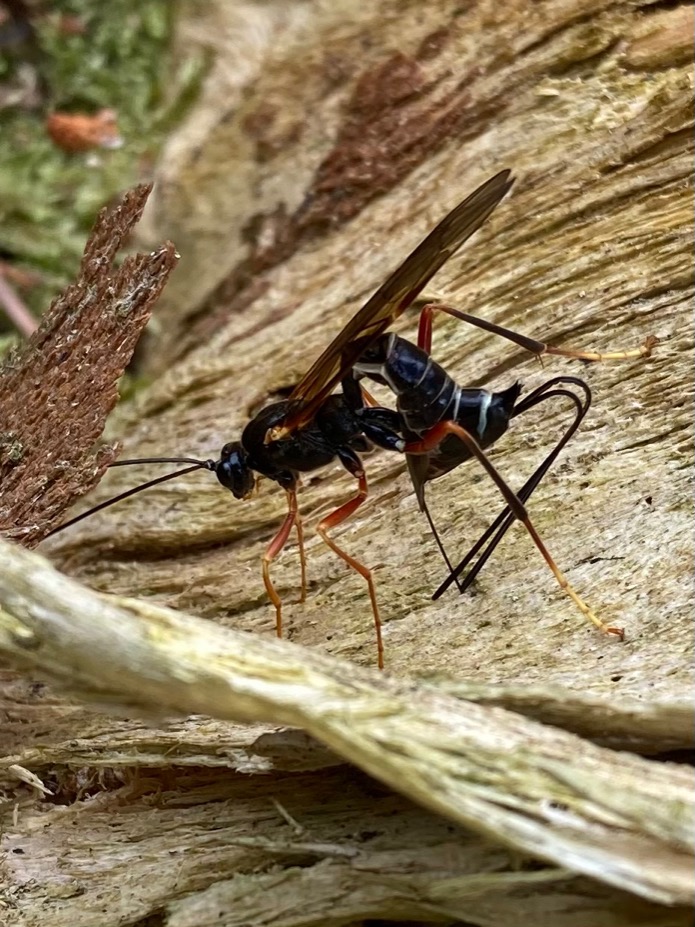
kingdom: Animalia
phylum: Arthropoda
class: Insecta
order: Hymenoptera
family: Ichneumonidae
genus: Coleocentrus
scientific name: Coleocentrus excitator
